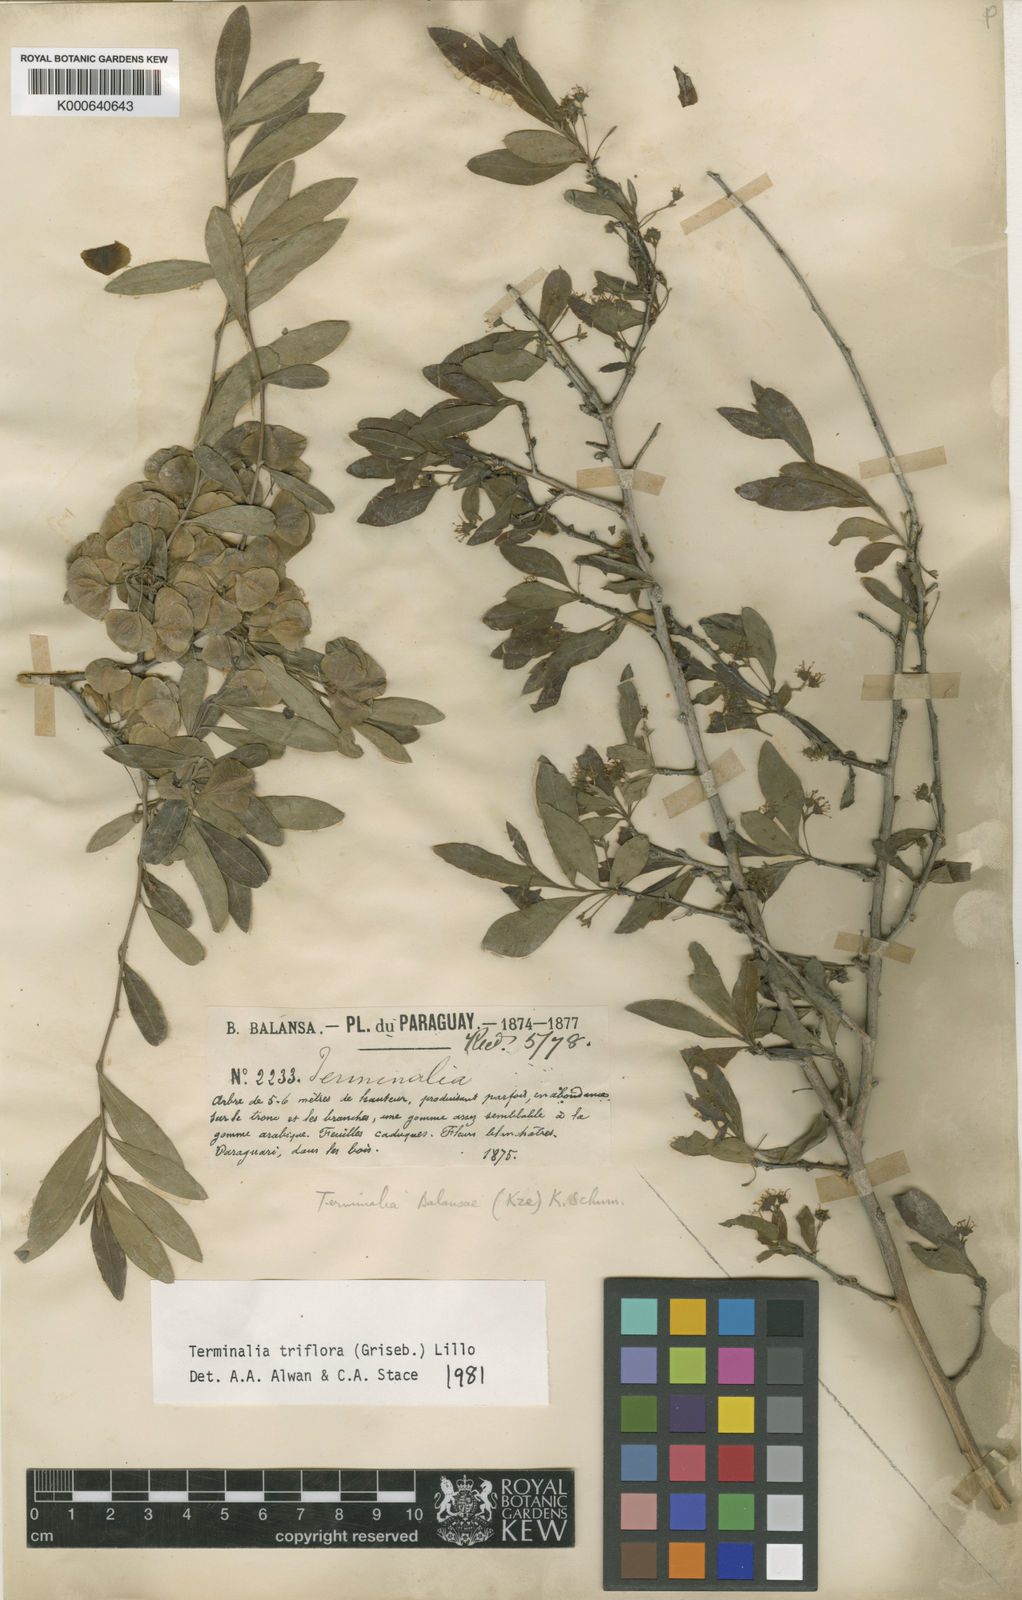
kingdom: Plantae
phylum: Tracheophyta
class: Magnoliopsida
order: Myrtales
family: Combretaceae
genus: Terminalia
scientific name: Terminalia triflora
